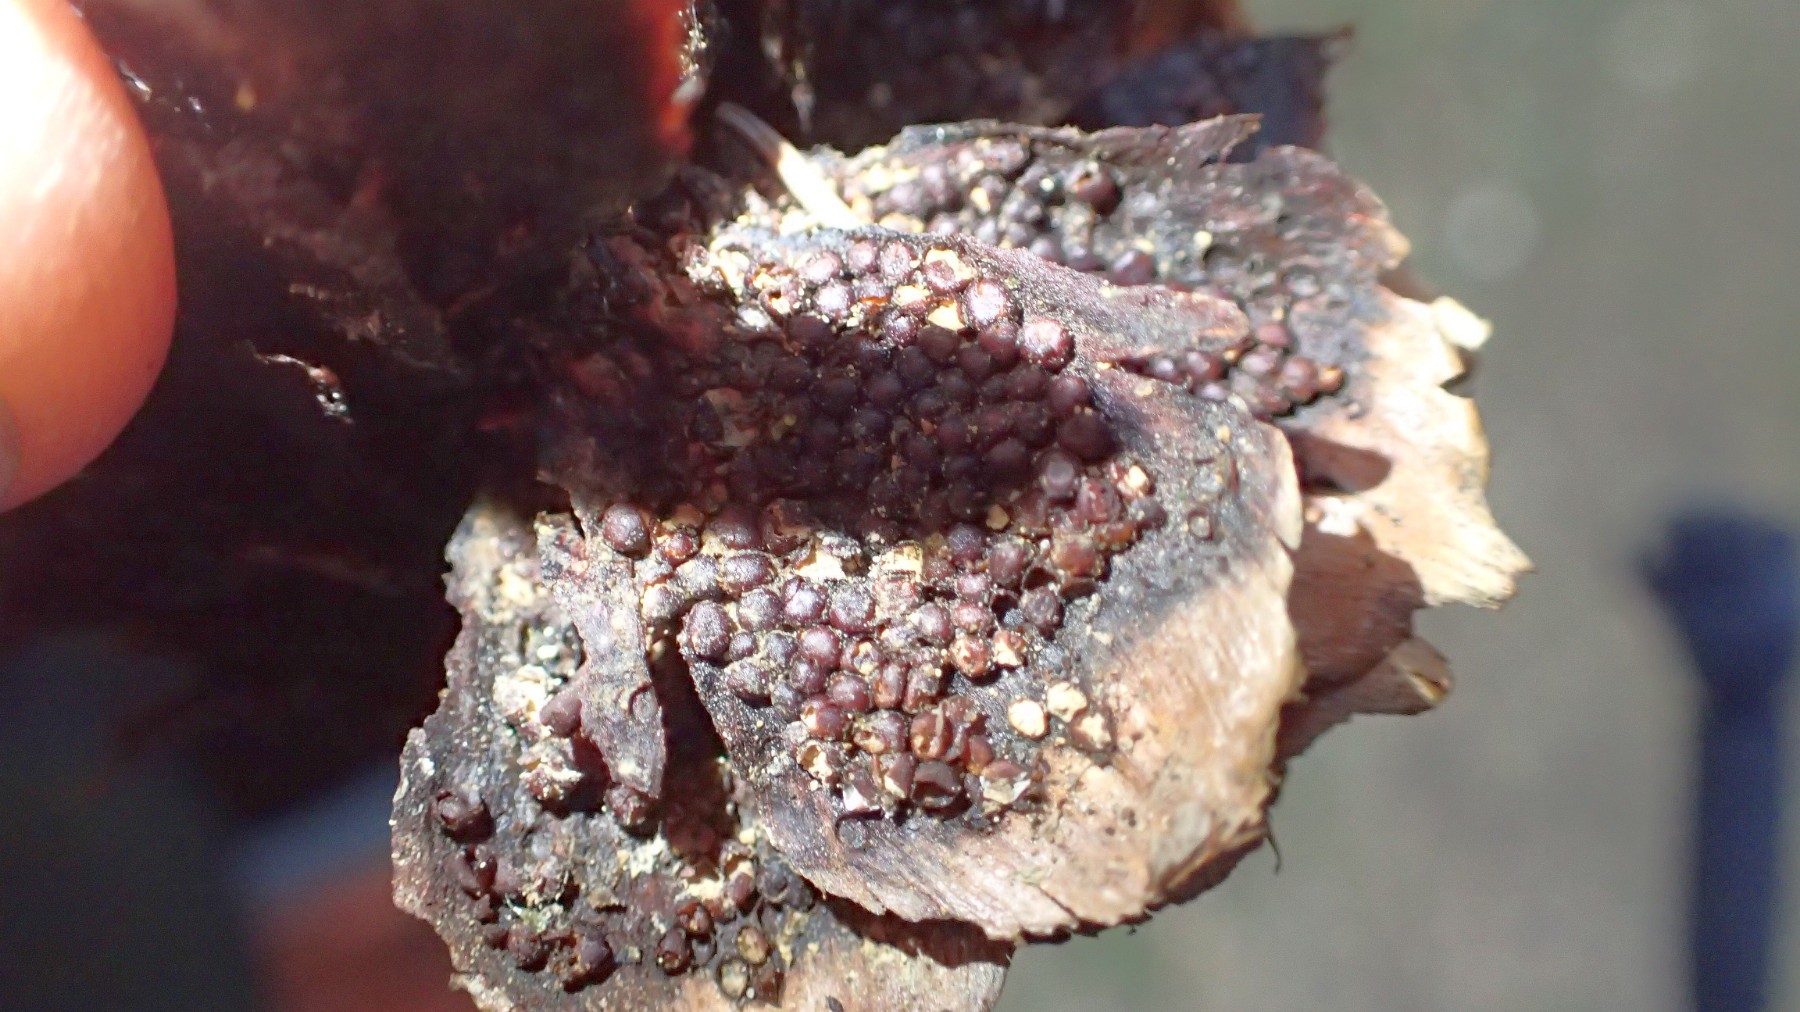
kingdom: Fungi
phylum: Basidiomycota
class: Pucciniomycetes
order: Pucciniales
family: Pucciniastraceae
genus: Thekopsora
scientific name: Thekopsora areolata
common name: grankogle-nålerust
